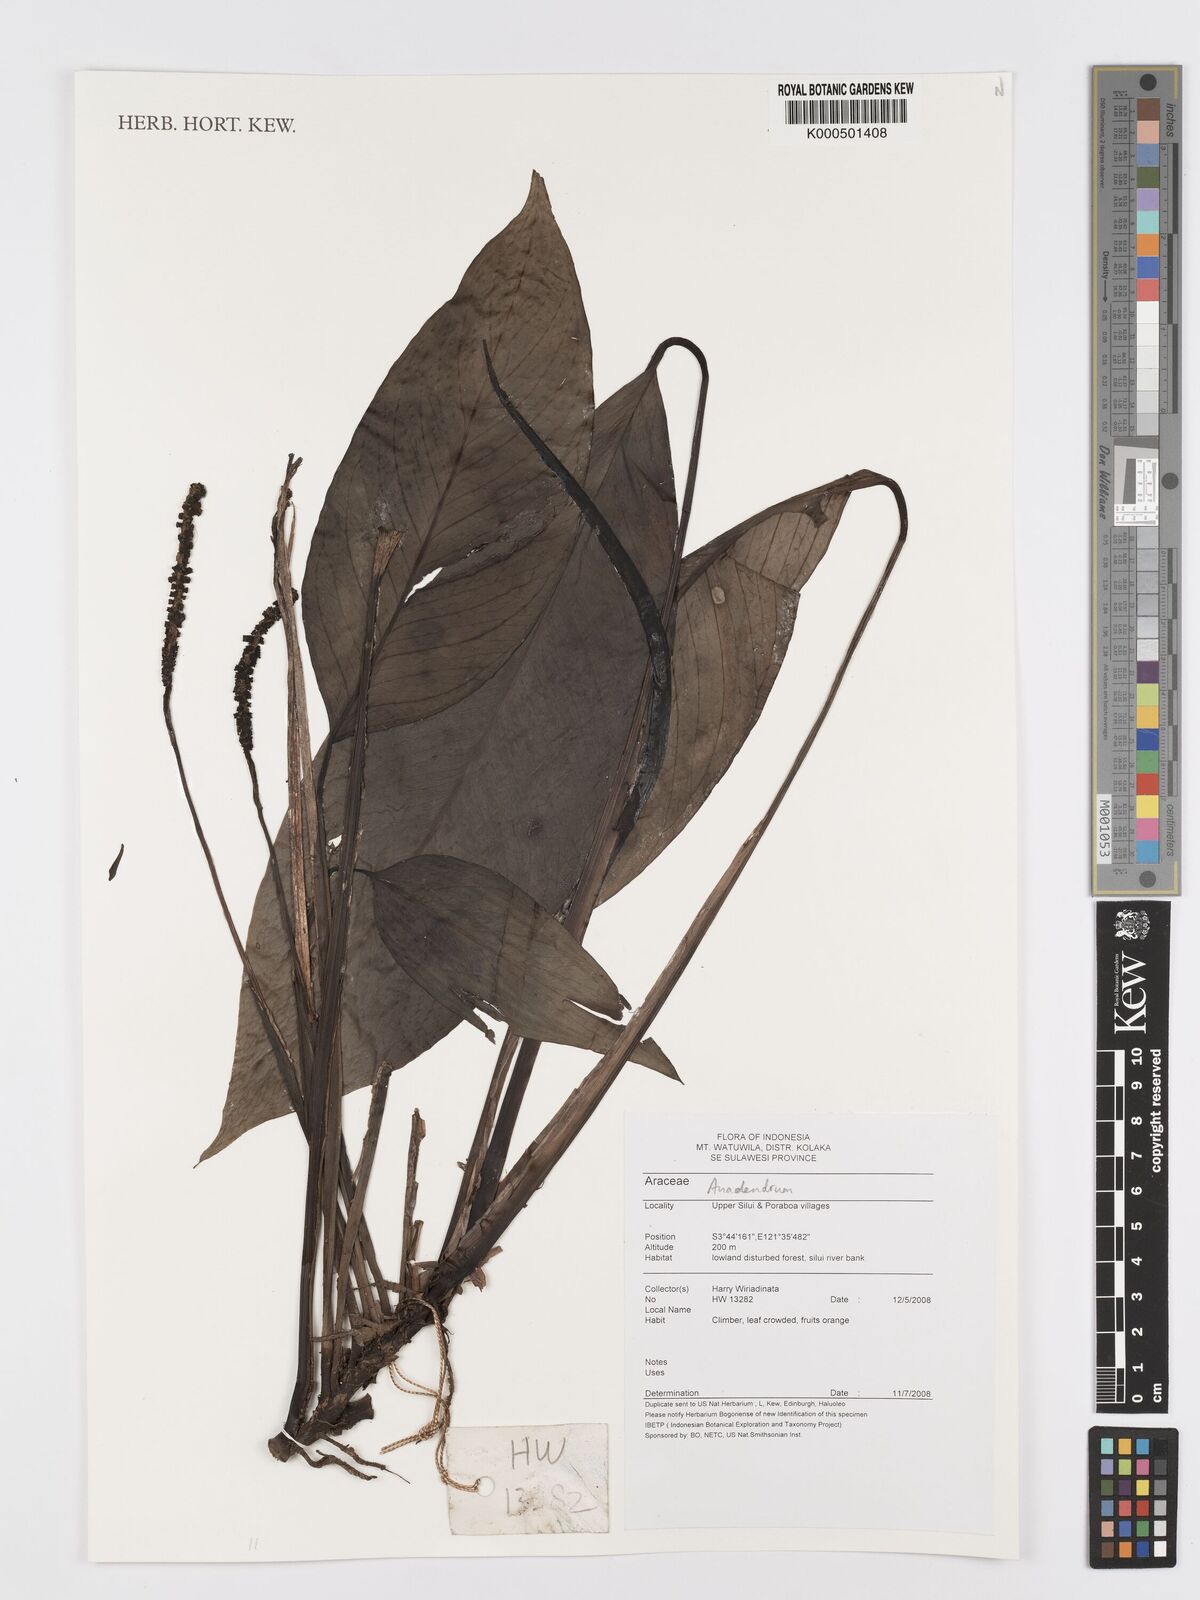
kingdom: Plantae
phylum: Tracheophyta
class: Liliopsida
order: Alismatales
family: Araceae
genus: Anadendrum
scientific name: Anadendrum
